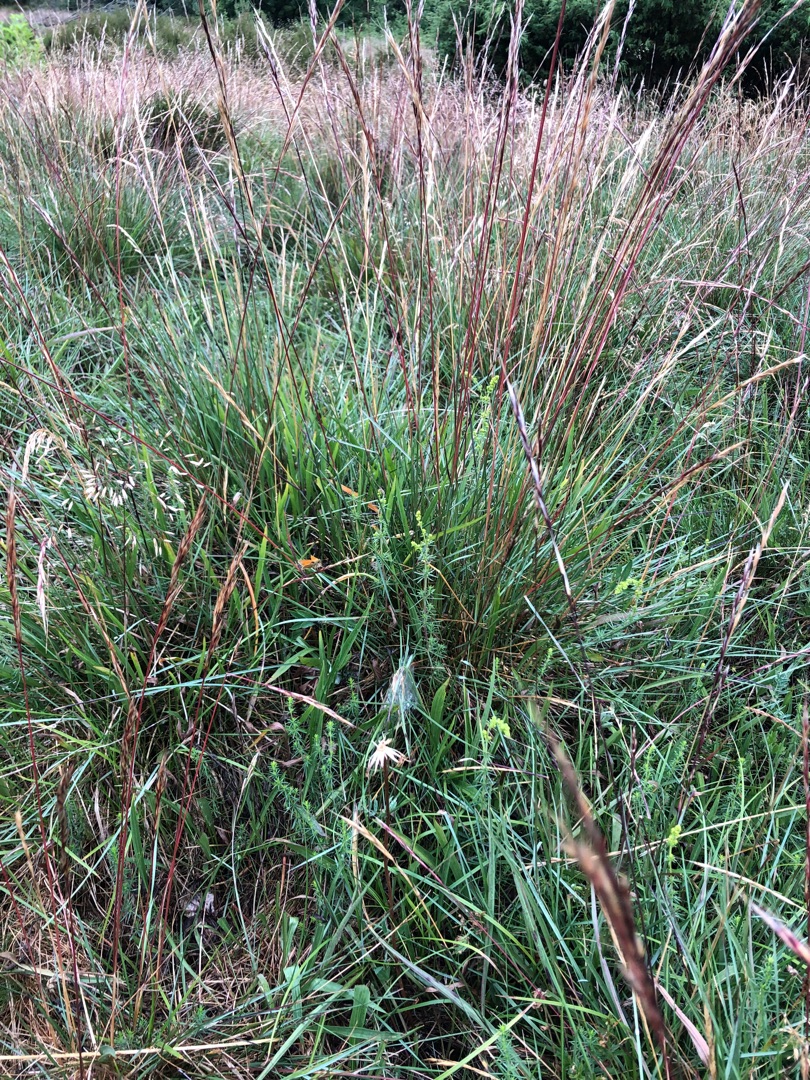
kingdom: Plantae
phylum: Tracheophyta
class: Liliopsida
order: Poales
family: Poaceae
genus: Helictochloa
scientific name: Helictochloa pratensis
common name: Eng-havre
